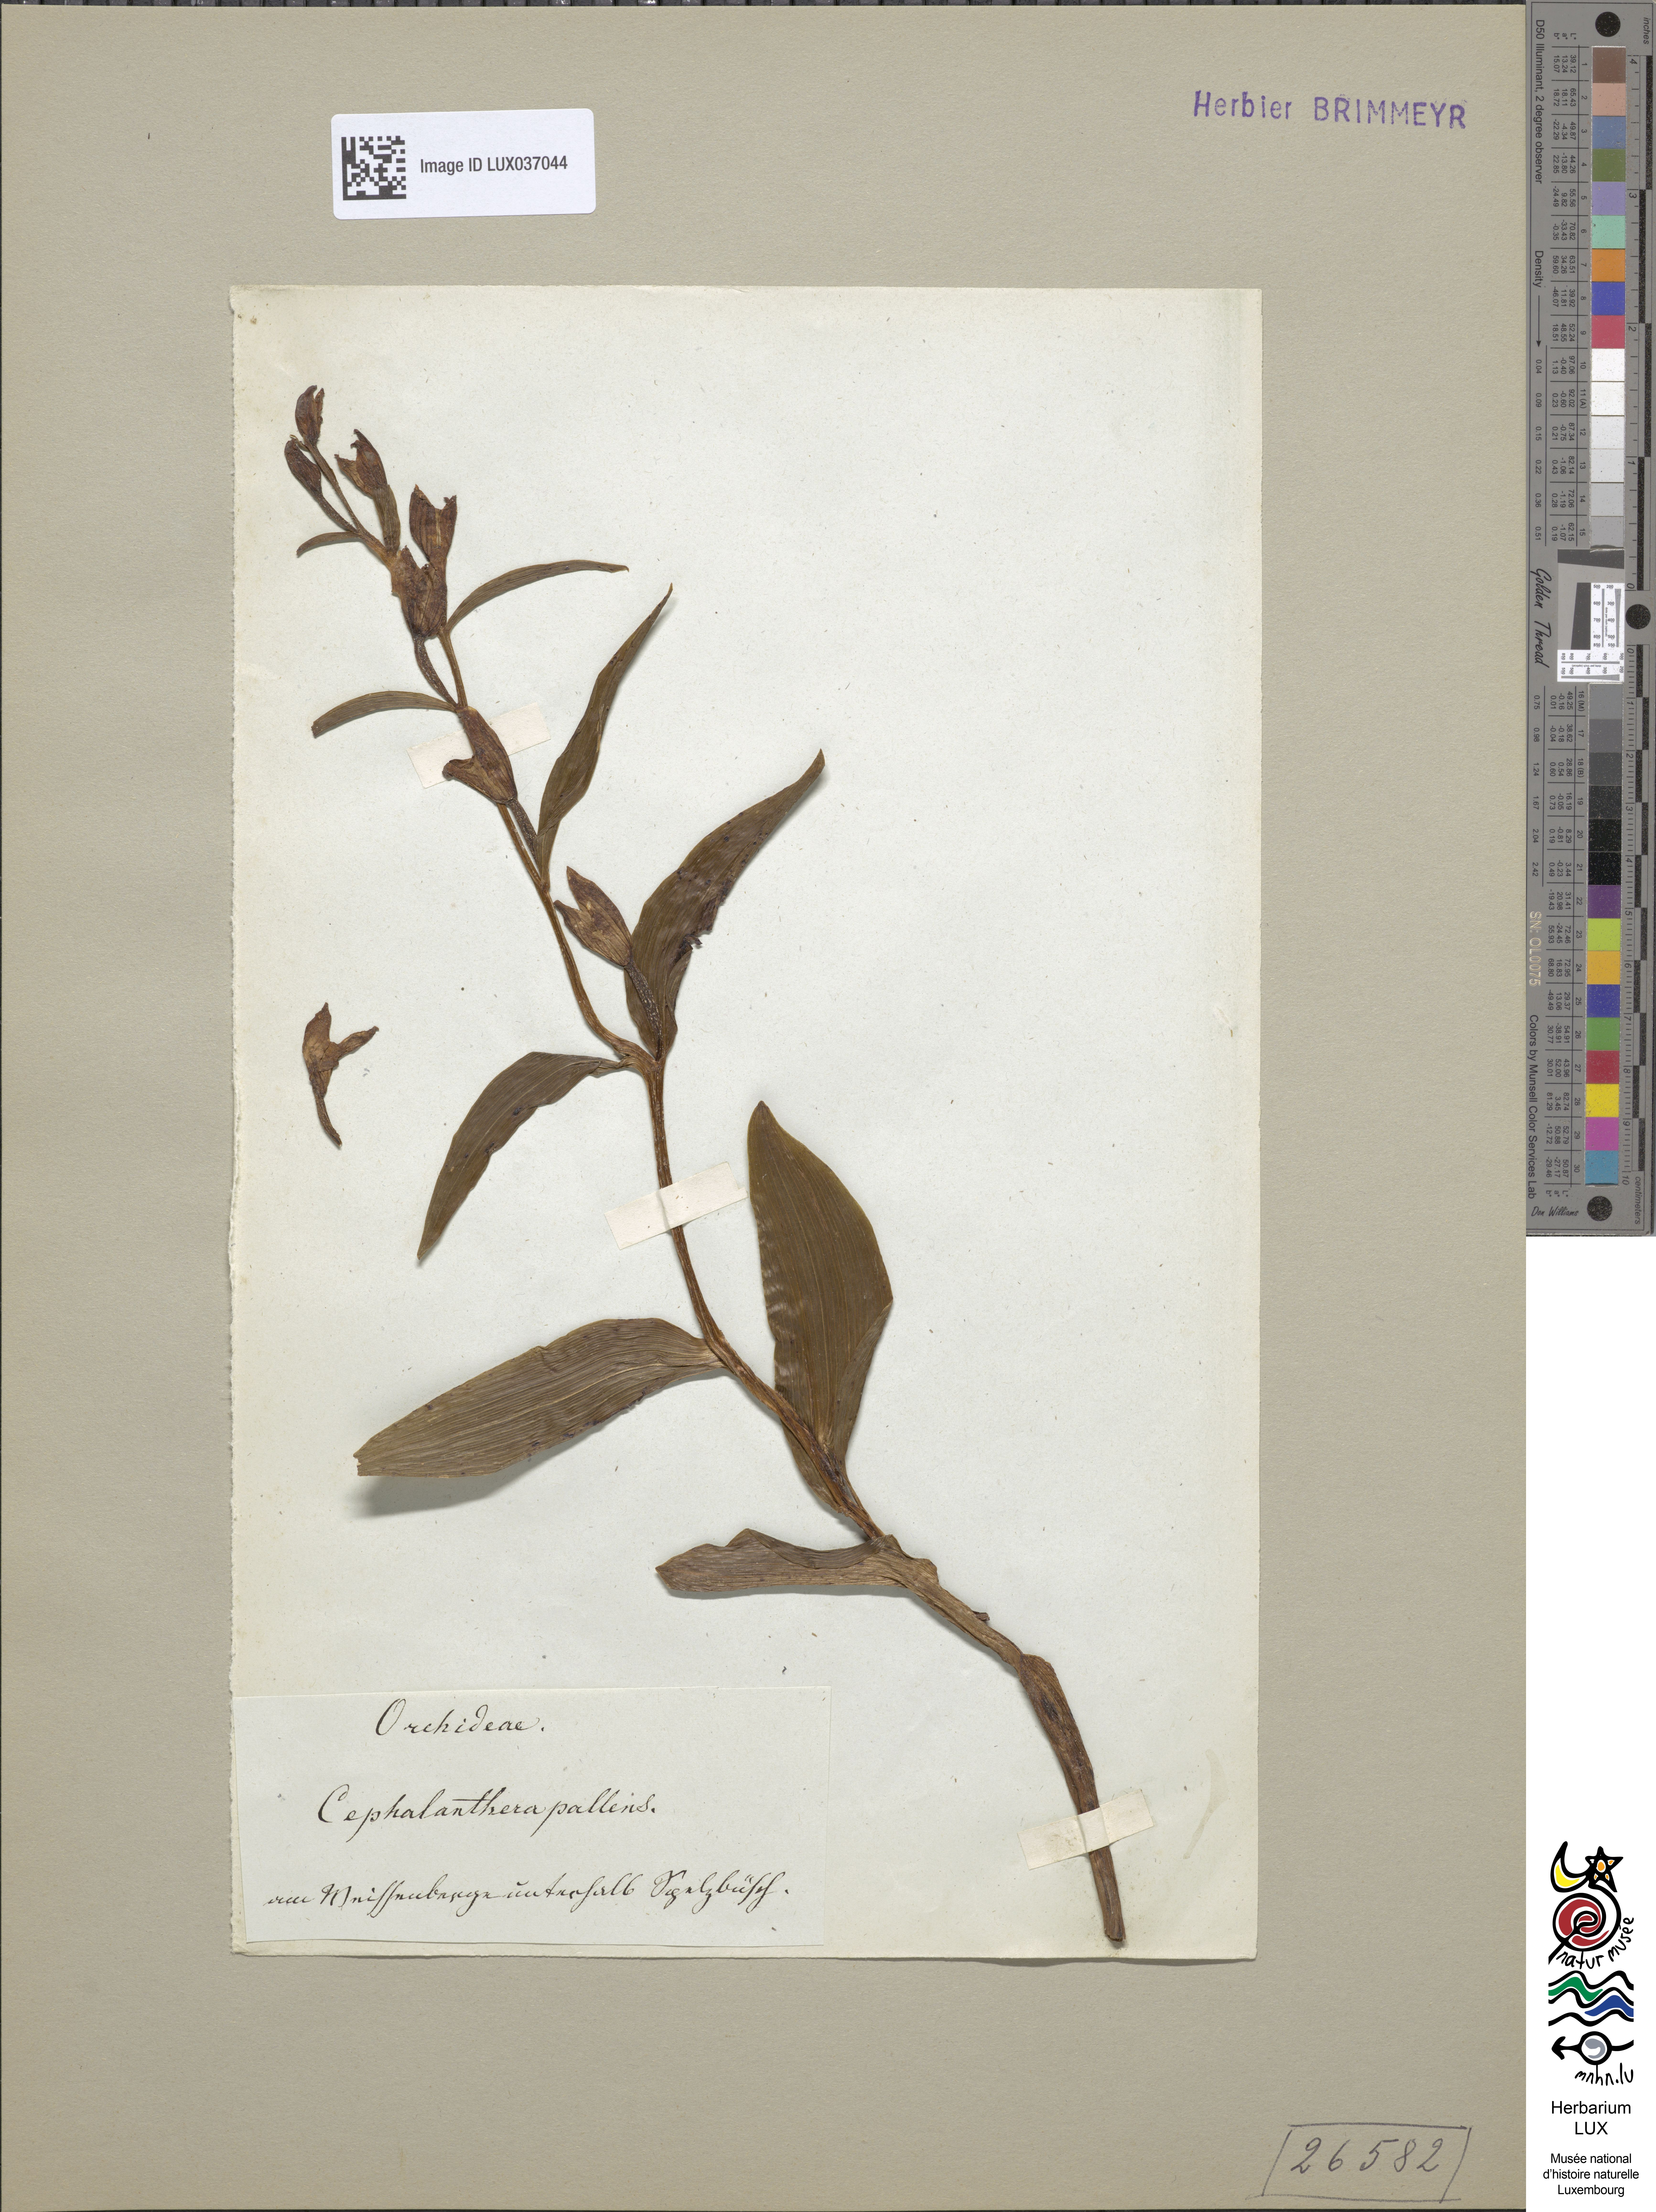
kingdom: Plantae
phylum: Tracheophyta
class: Liliopsida
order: Asparagales
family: Orchidaceae
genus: Cephalanthera
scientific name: Cephalanthera damasonium
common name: White helleborine
